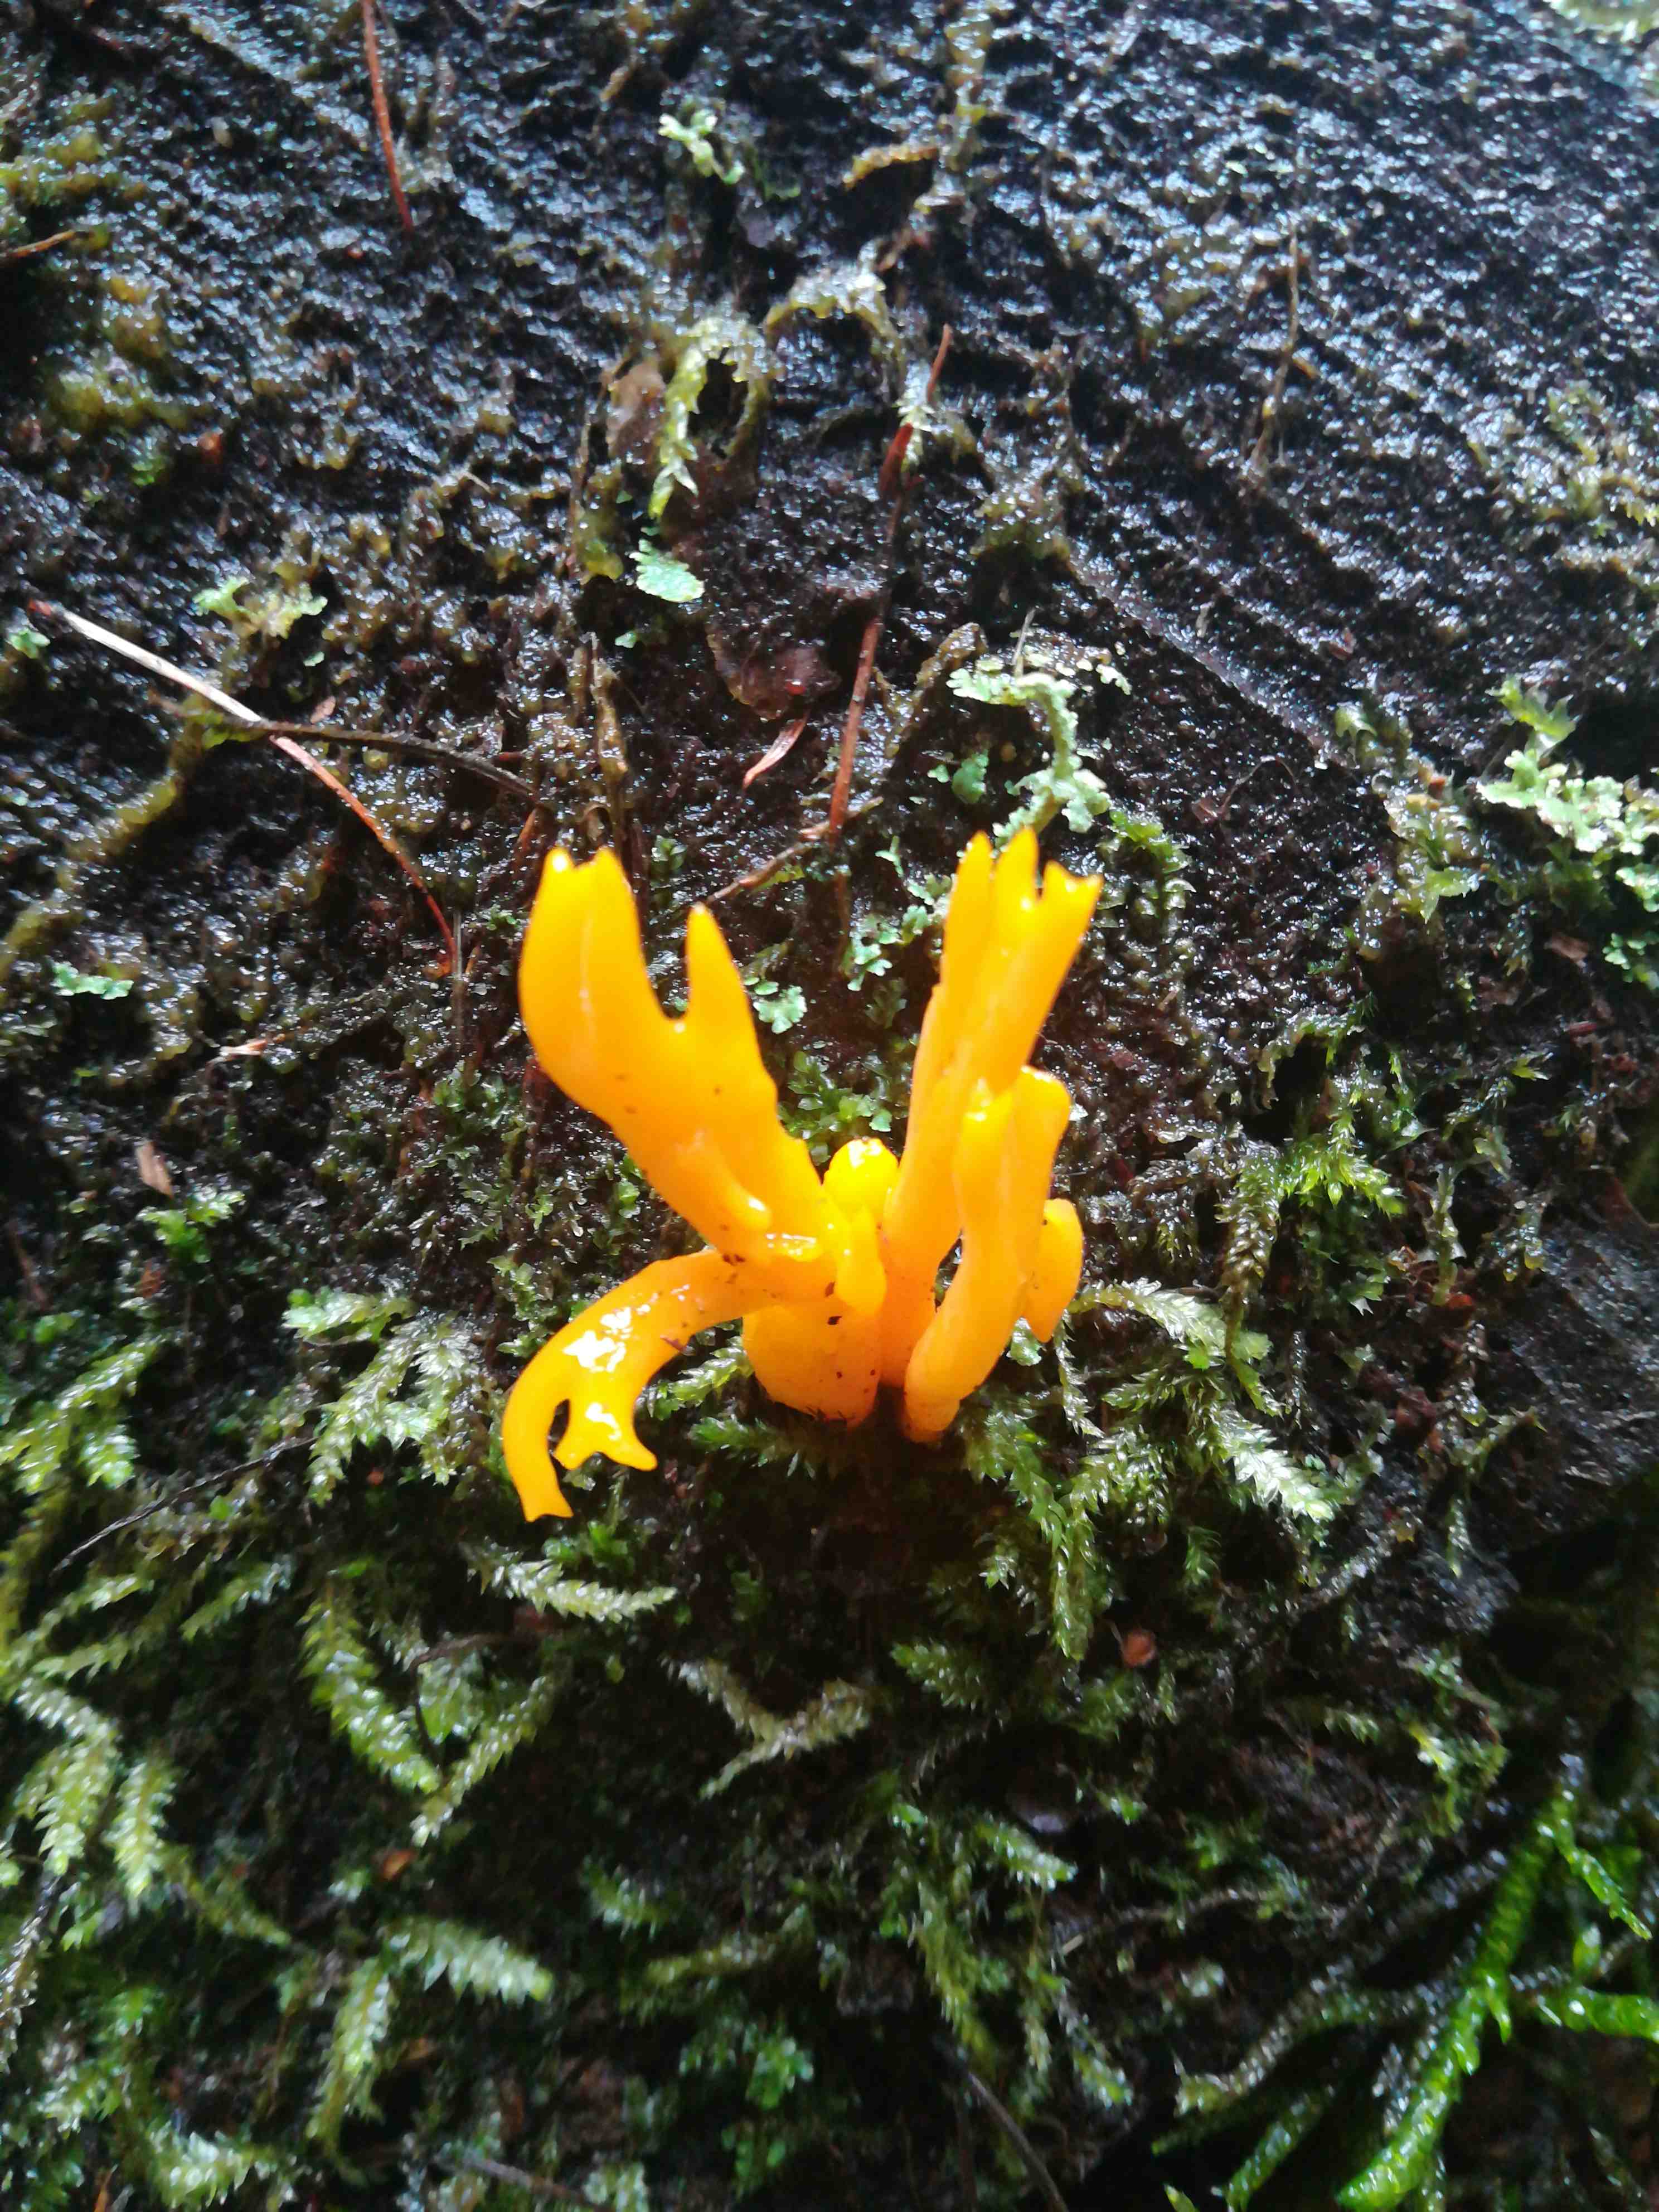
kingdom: Fungi
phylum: Basidiomycota
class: Dacrymycetes
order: Dacrymycetales
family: Dacrymycetaceae
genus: Calocera
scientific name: Calocera viscosa
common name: almindelig guldgaffel
